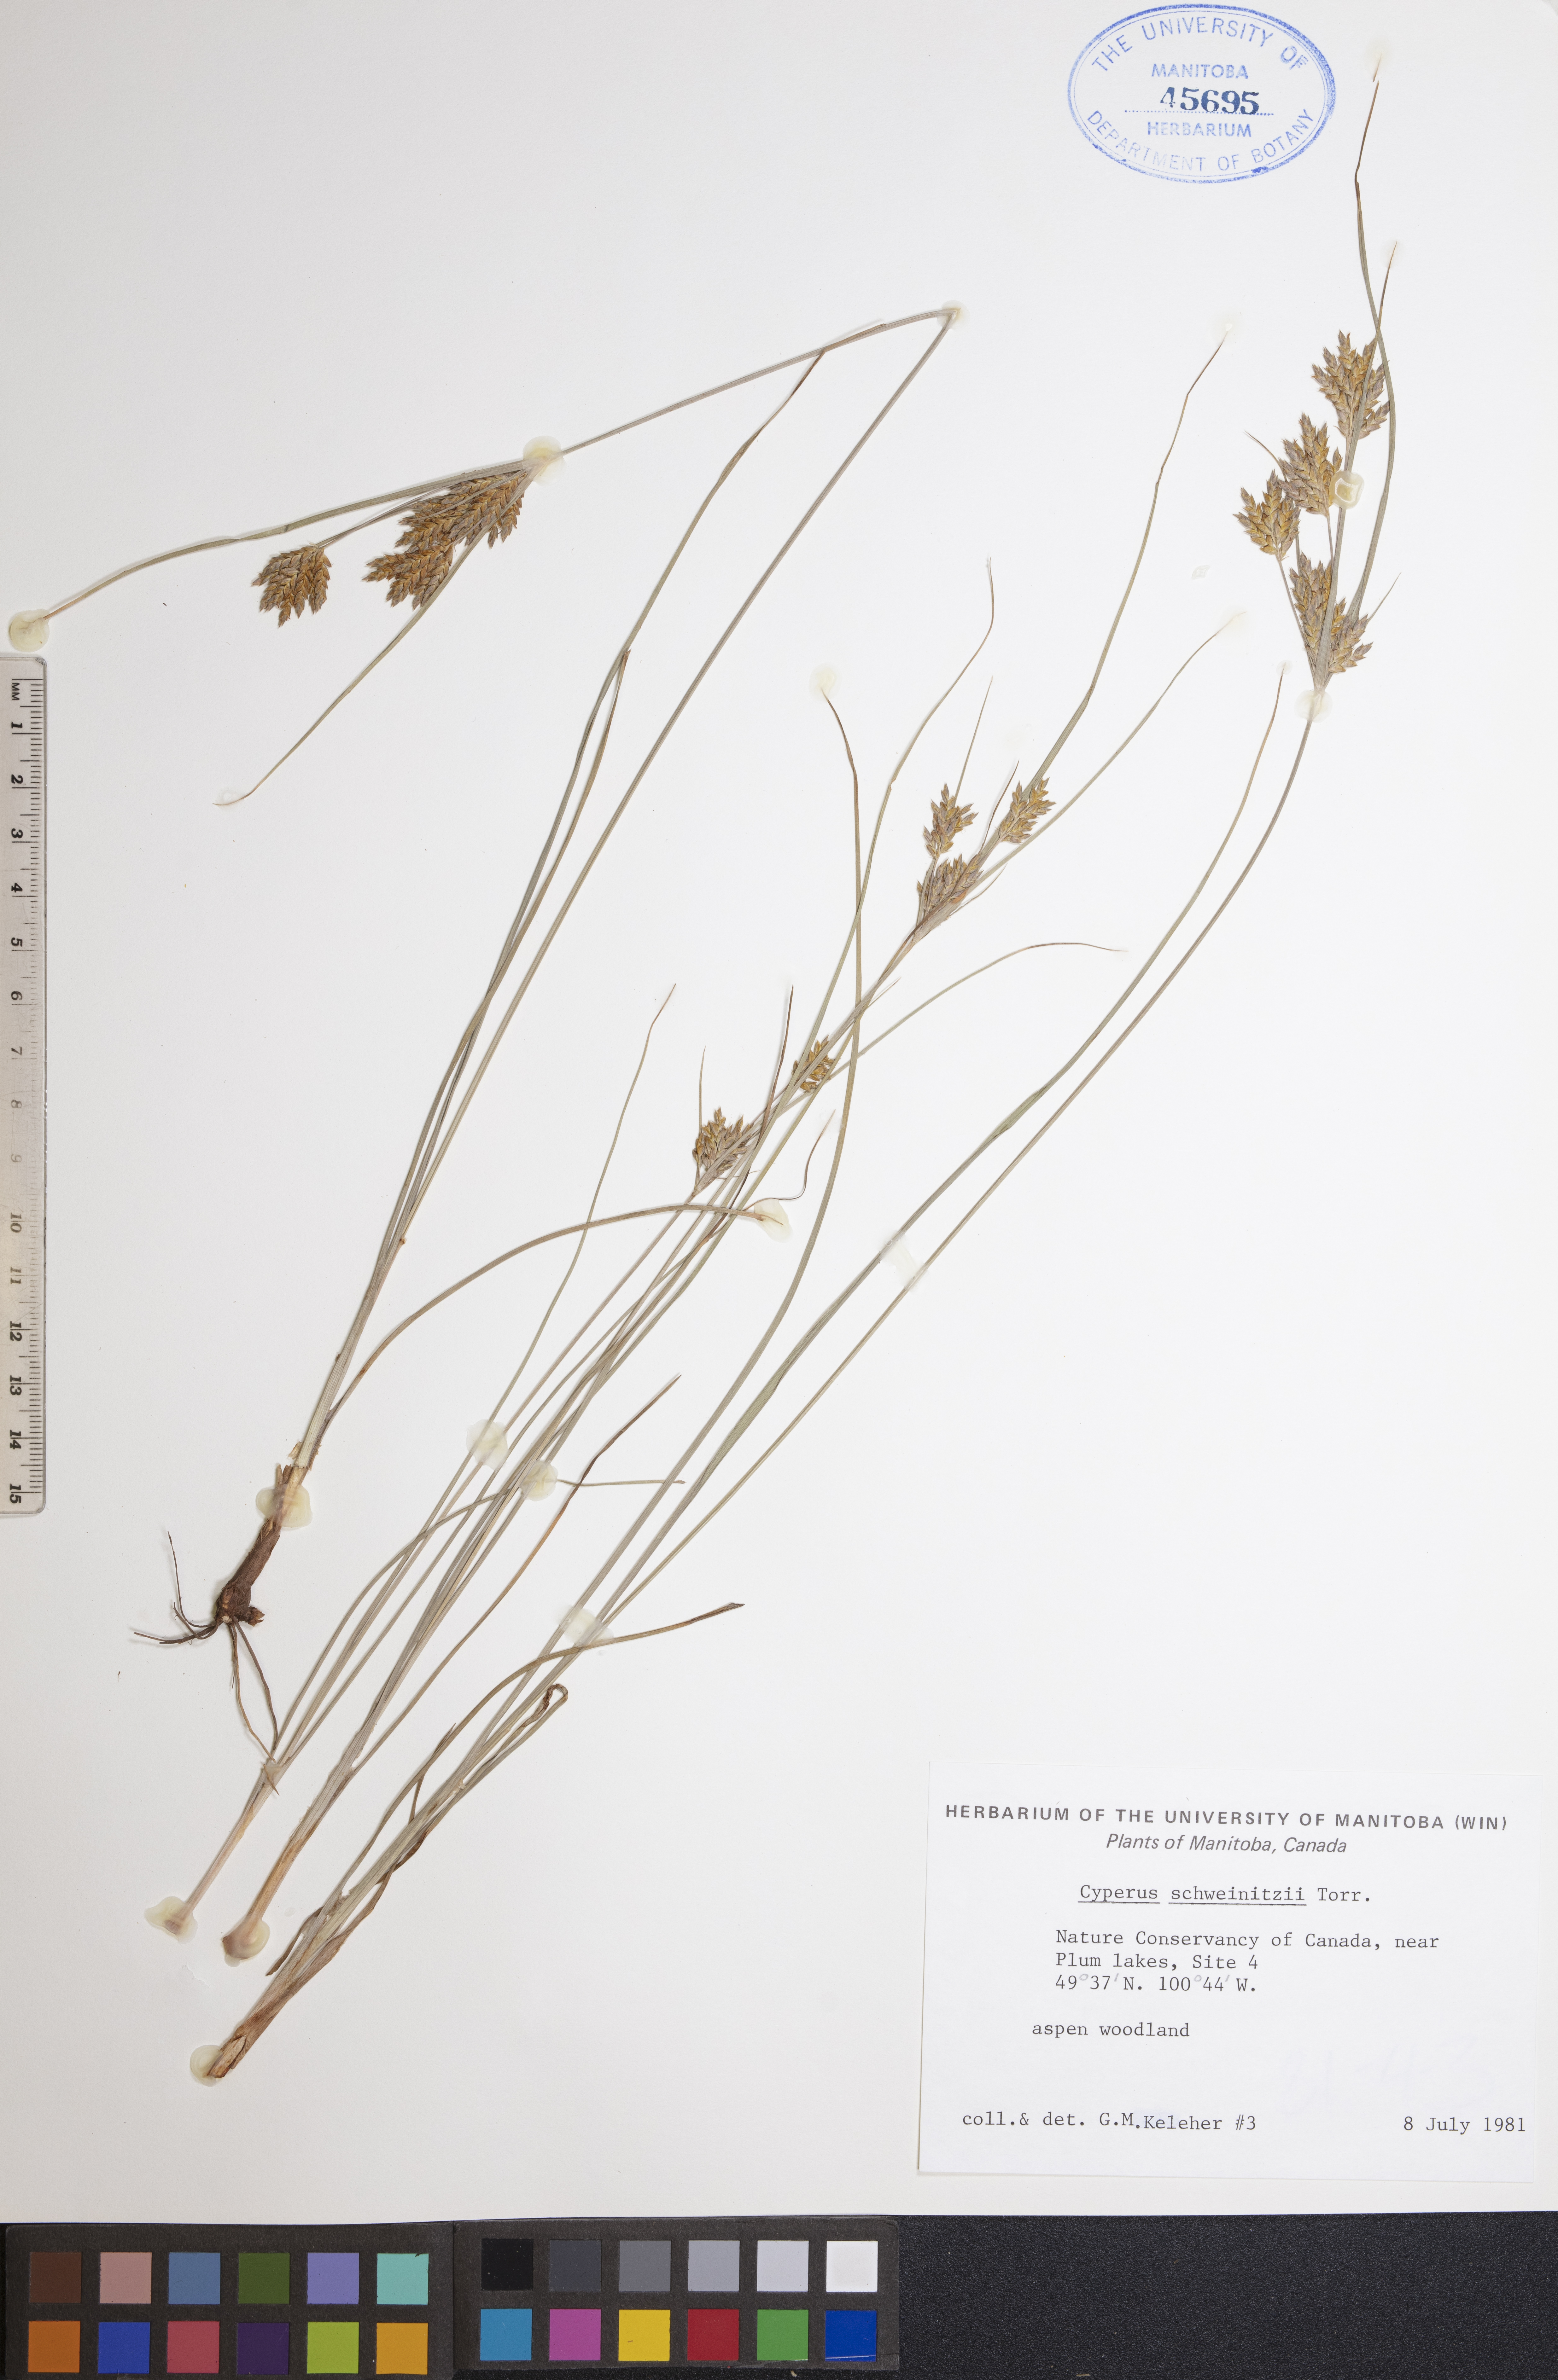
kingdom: Plantae
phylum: Tracheophyta
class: Liliopsida
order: Poales
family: Cyperaceae
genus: Cyperus
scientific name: Cyperus schweinitzii
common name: Schweinitz's cyperus
